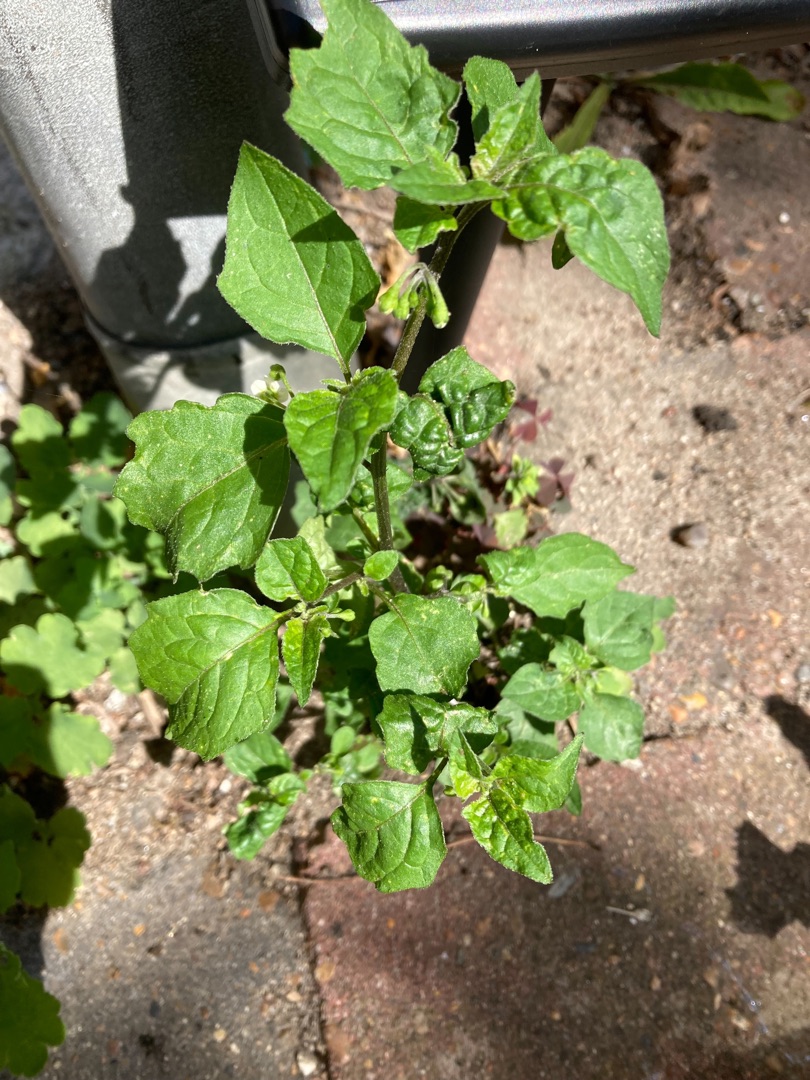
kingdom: Plantae
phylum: Tracheophyta
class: Magnoliopsida
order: Solanales
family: Solanaceae
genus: Solanum
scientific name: Solanum nigrum
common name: Sort natskygge
